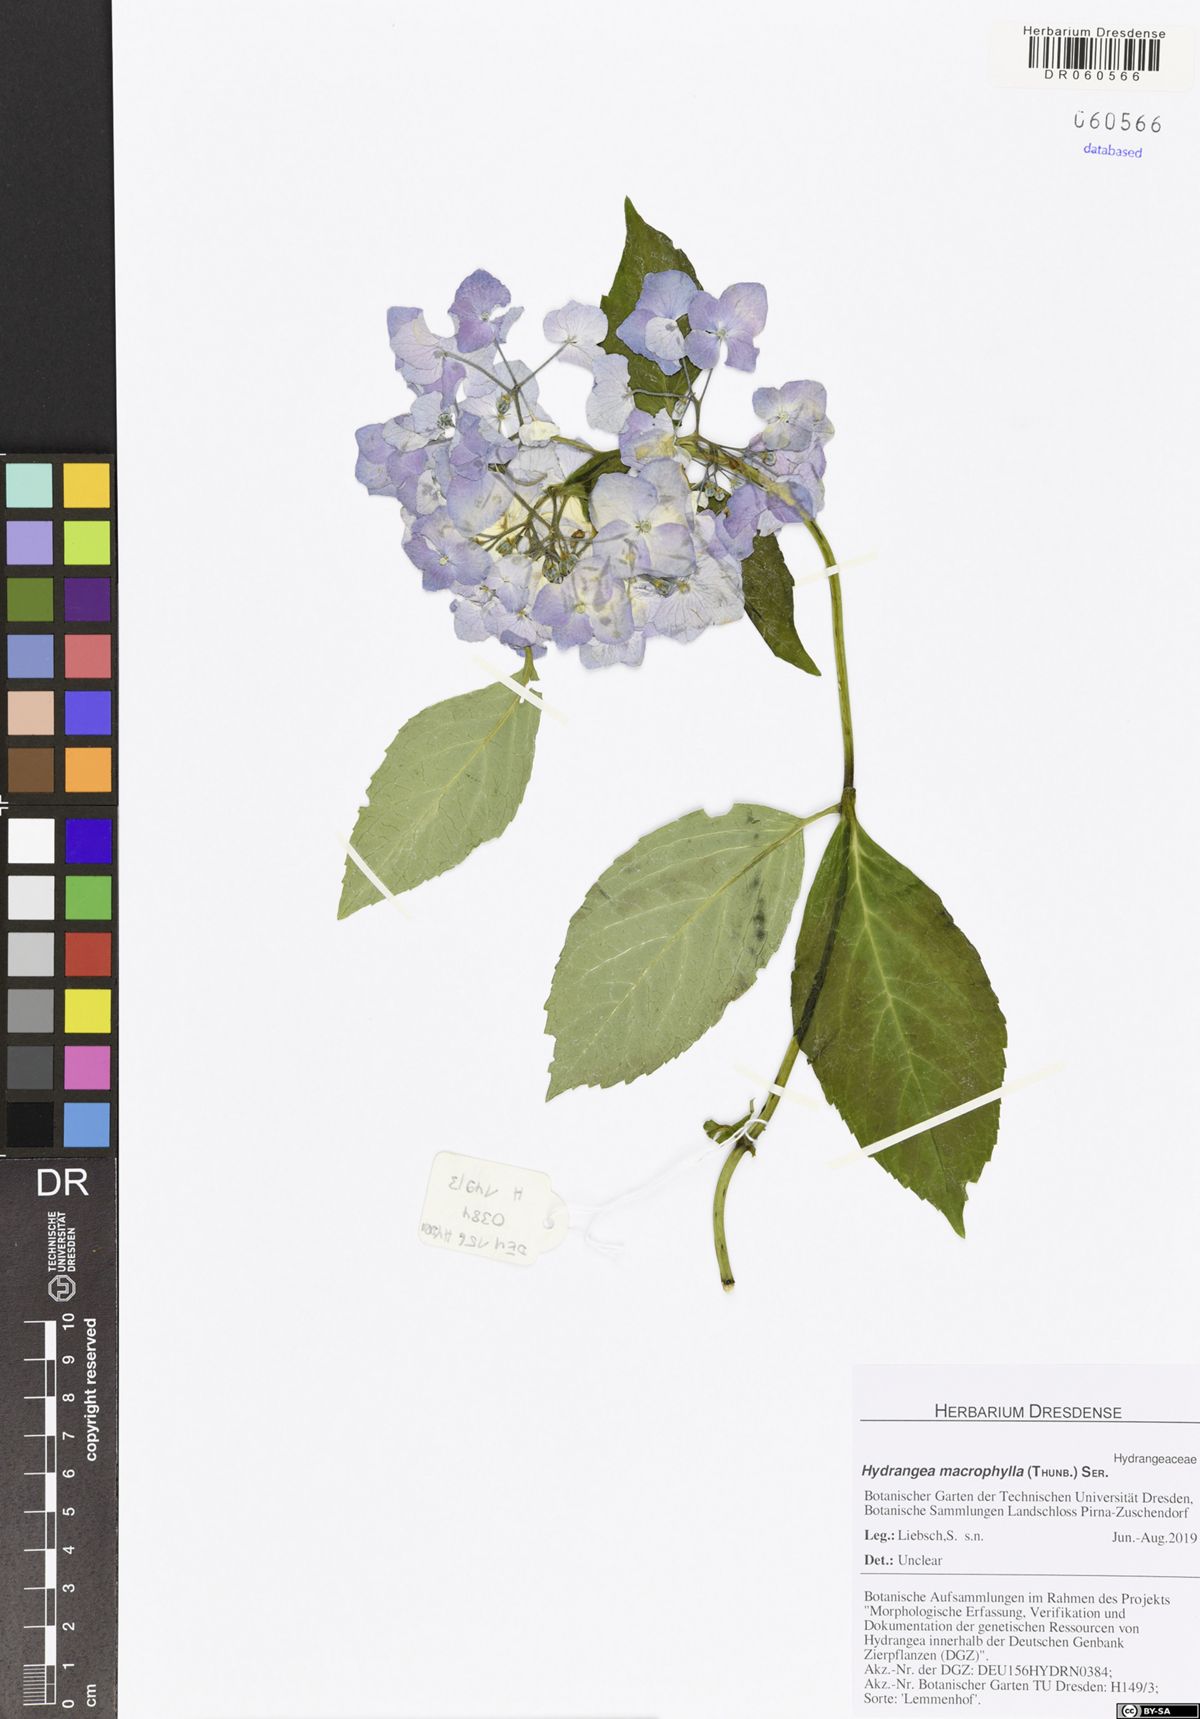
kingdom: Plantae
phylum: Tracheophyta
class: Magnoliopsida
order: Cornales
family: Hydrangeaceae
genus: Hydrangea
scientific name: Hydrangea macrophylla
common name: Hydrangea
